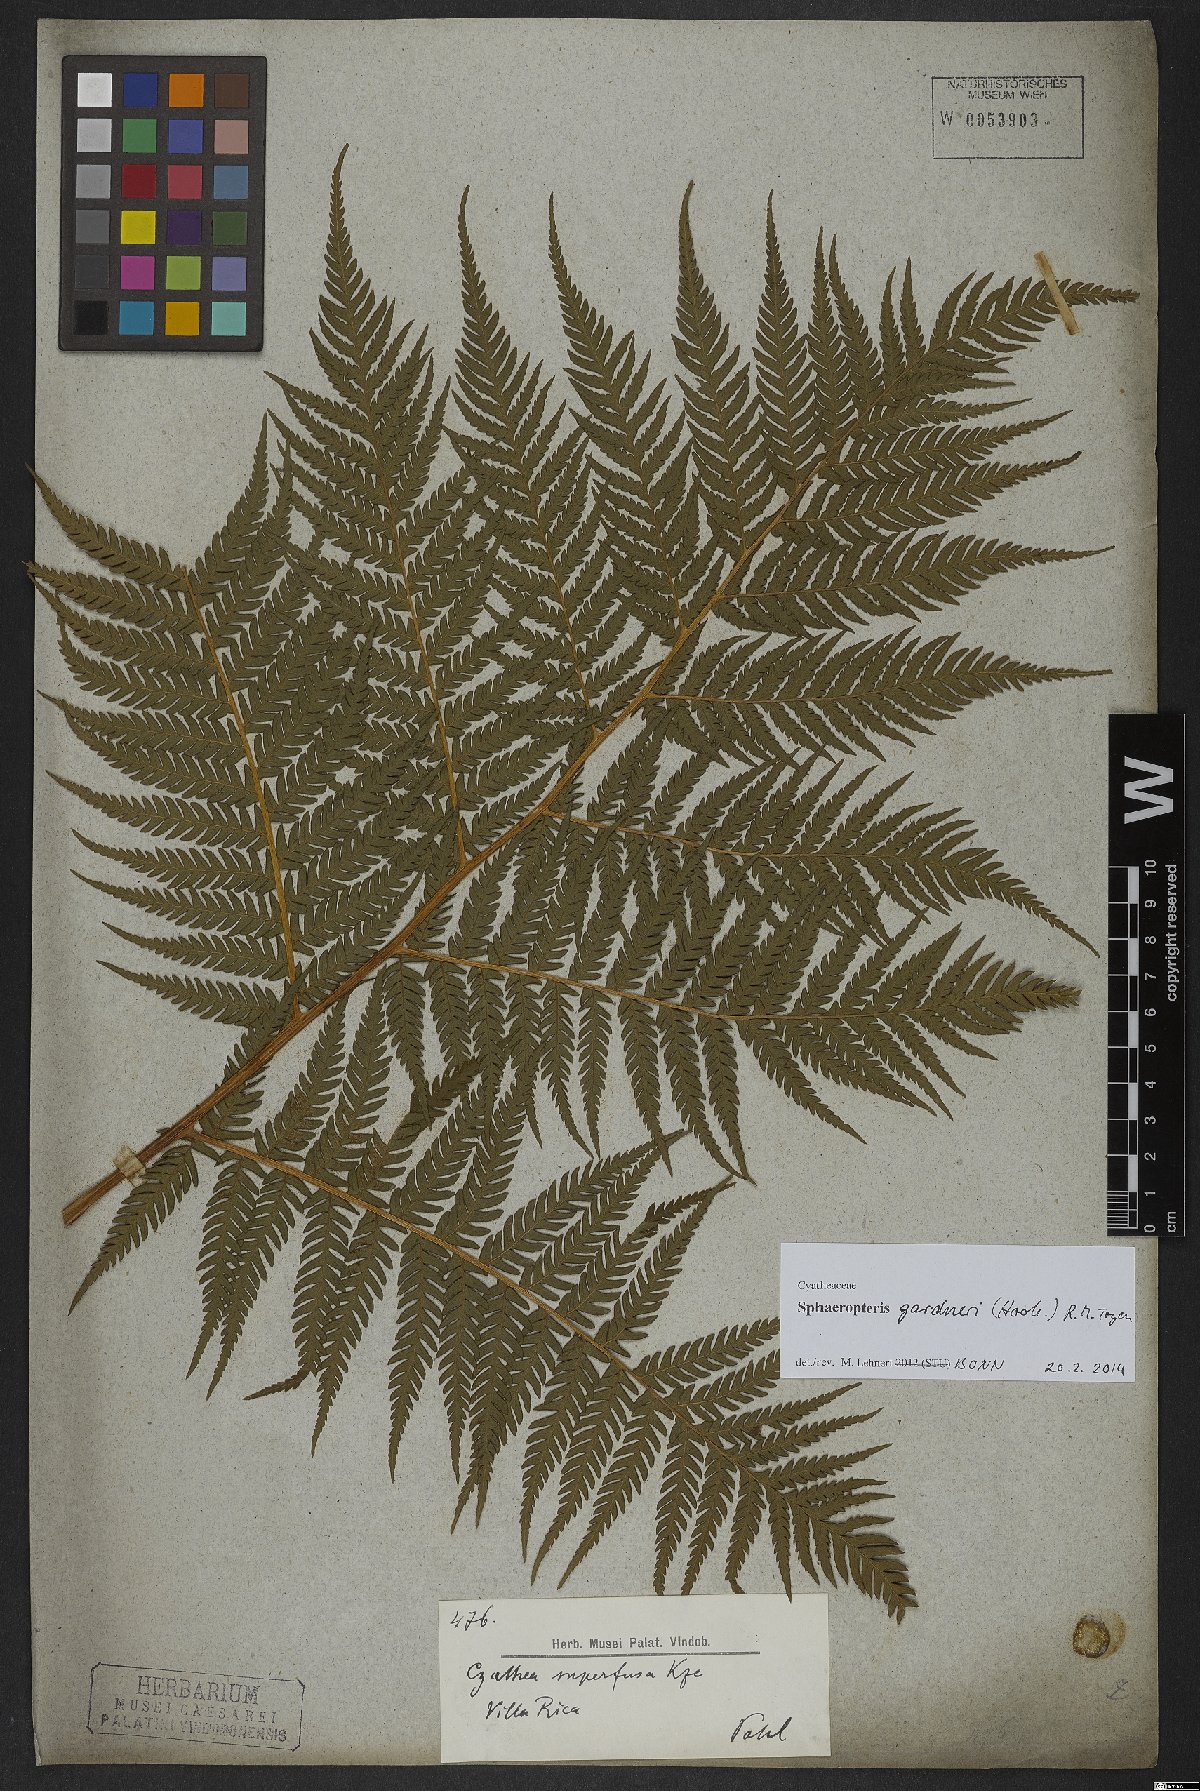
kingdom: Plantae
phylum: Tracheophyta
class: Polypodiopsida
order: Cyatheales
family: Cyatheaceae
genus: Sphaeropteris
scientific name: Sphaeropteris gardneri
